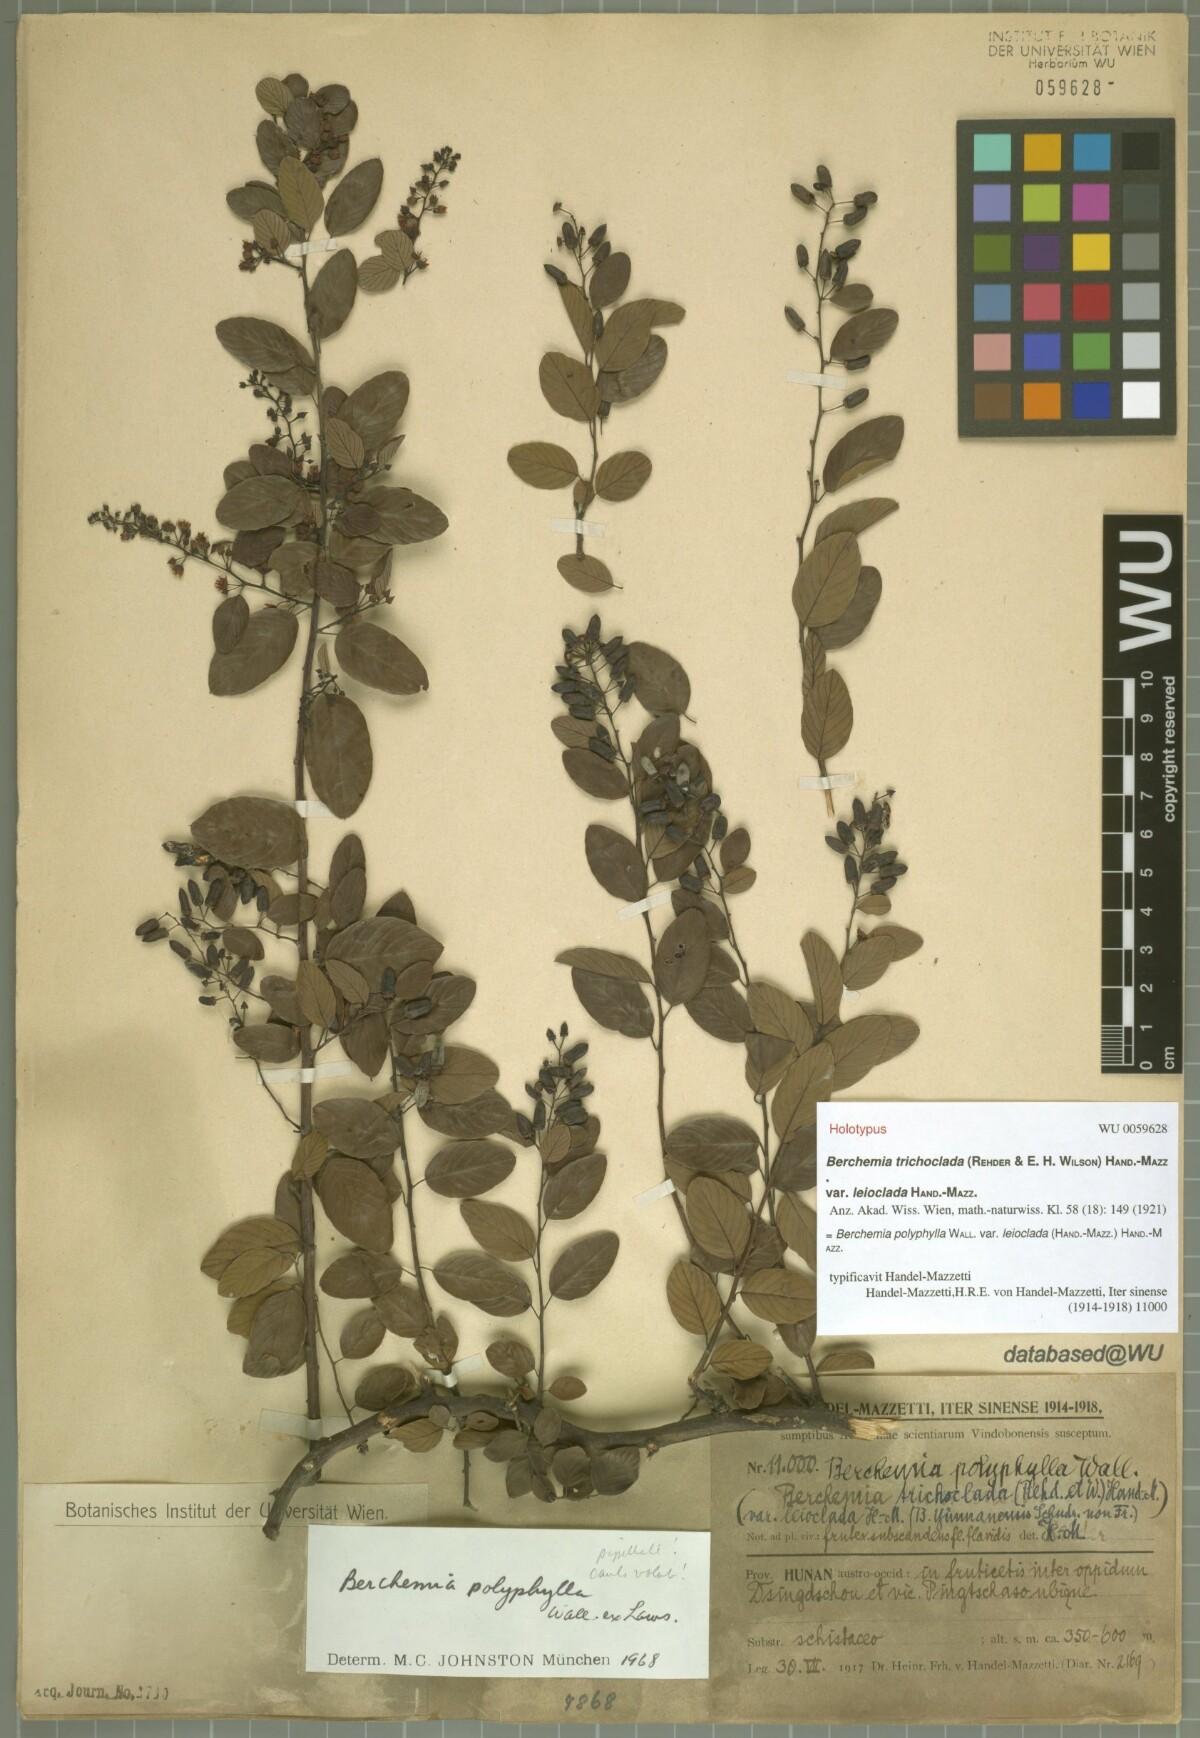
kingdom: Plantae
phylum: Tracheophyta
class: Magnoliopsida
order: Rosales
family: Rhamnaceae
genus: Berchemia
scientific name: Berchemia polyphylla
